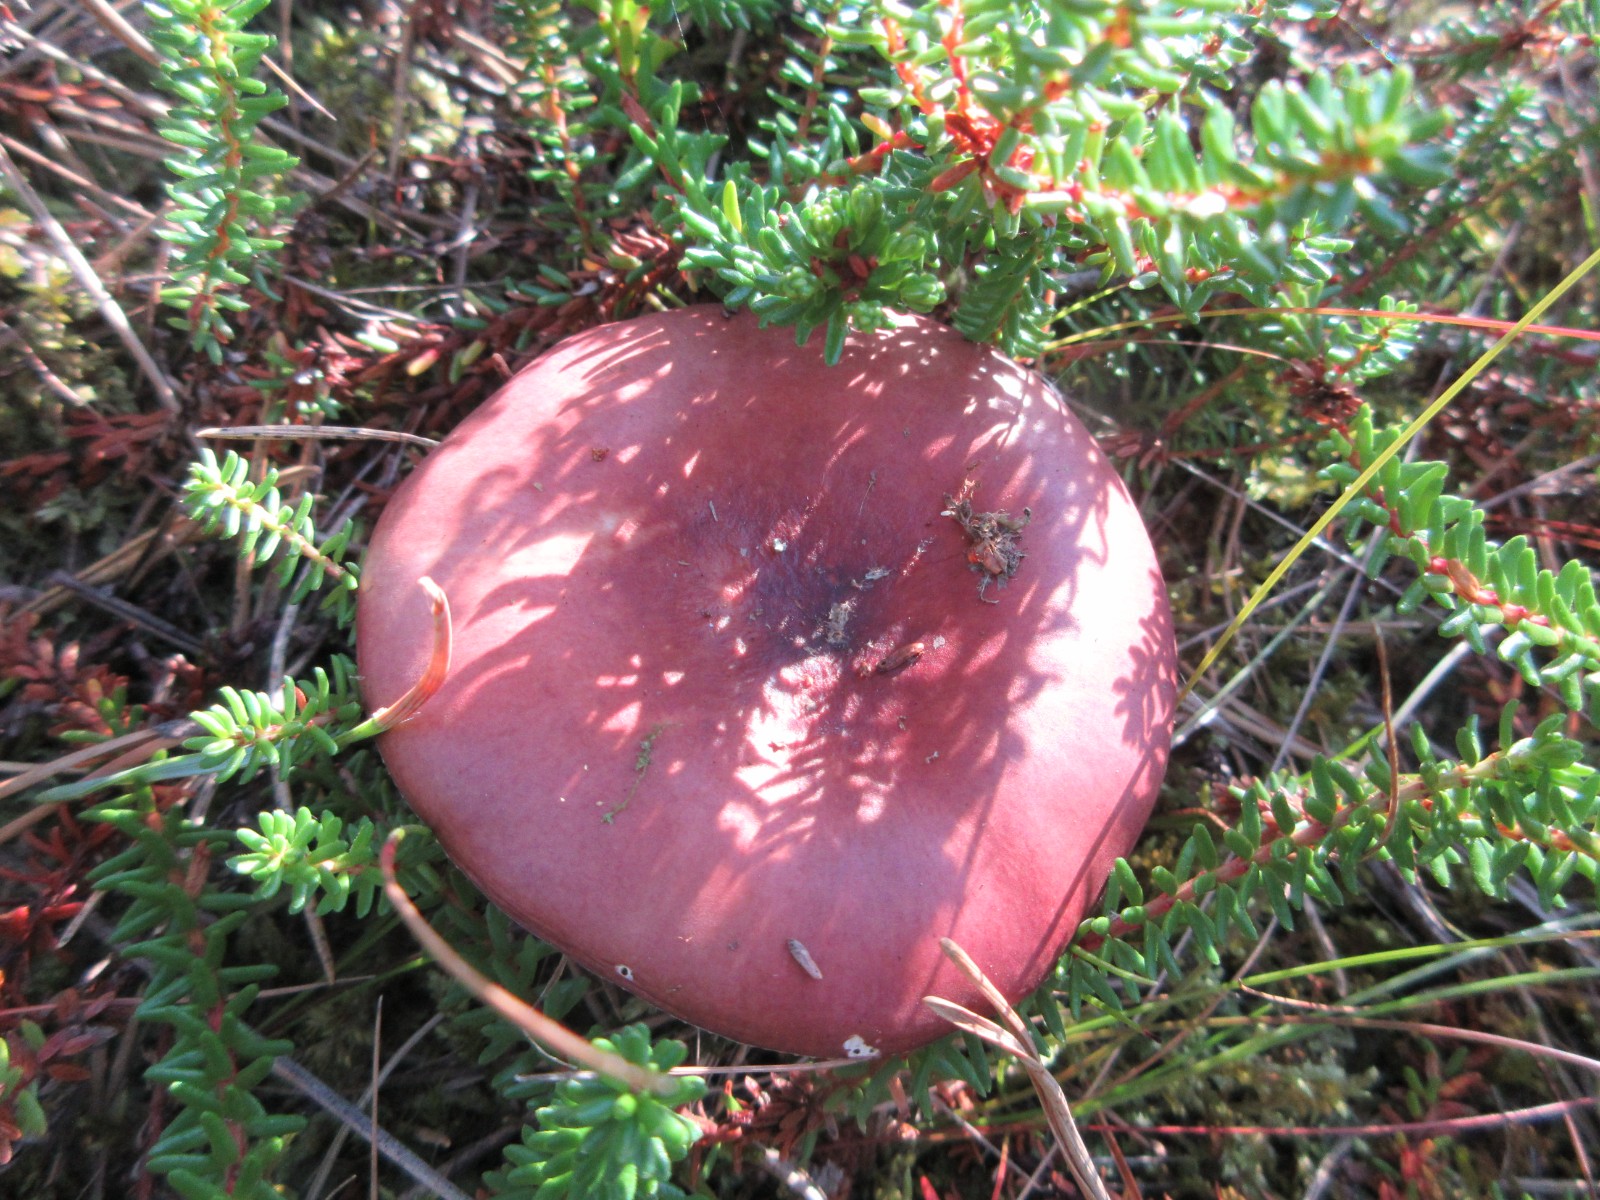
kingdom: Fungi
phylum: Basidiomycota
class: Agaricomycetes
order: Russulales
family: Russulaceae
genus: Russula
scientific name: Russula paludosa
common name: prægtig skørhat
